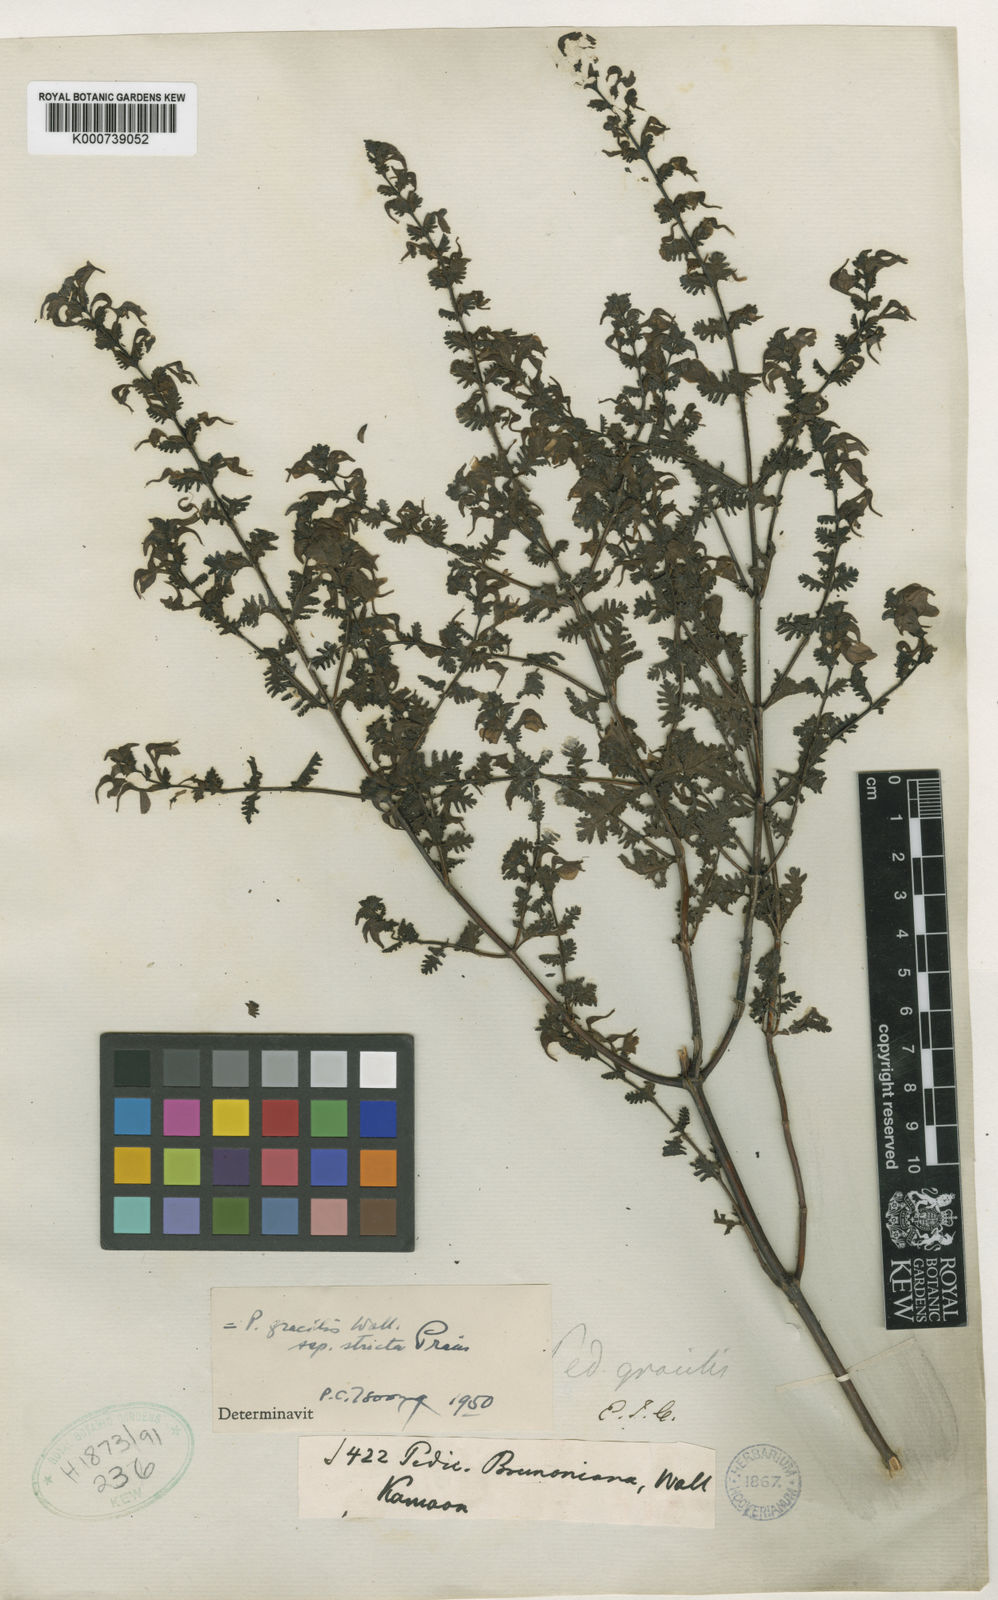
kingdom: Plantae
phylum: Tracheophyta
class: Magnoliopsida
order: Lamiales
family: Orobanchaceae
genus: Pedicularis
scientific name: Pedicularis
